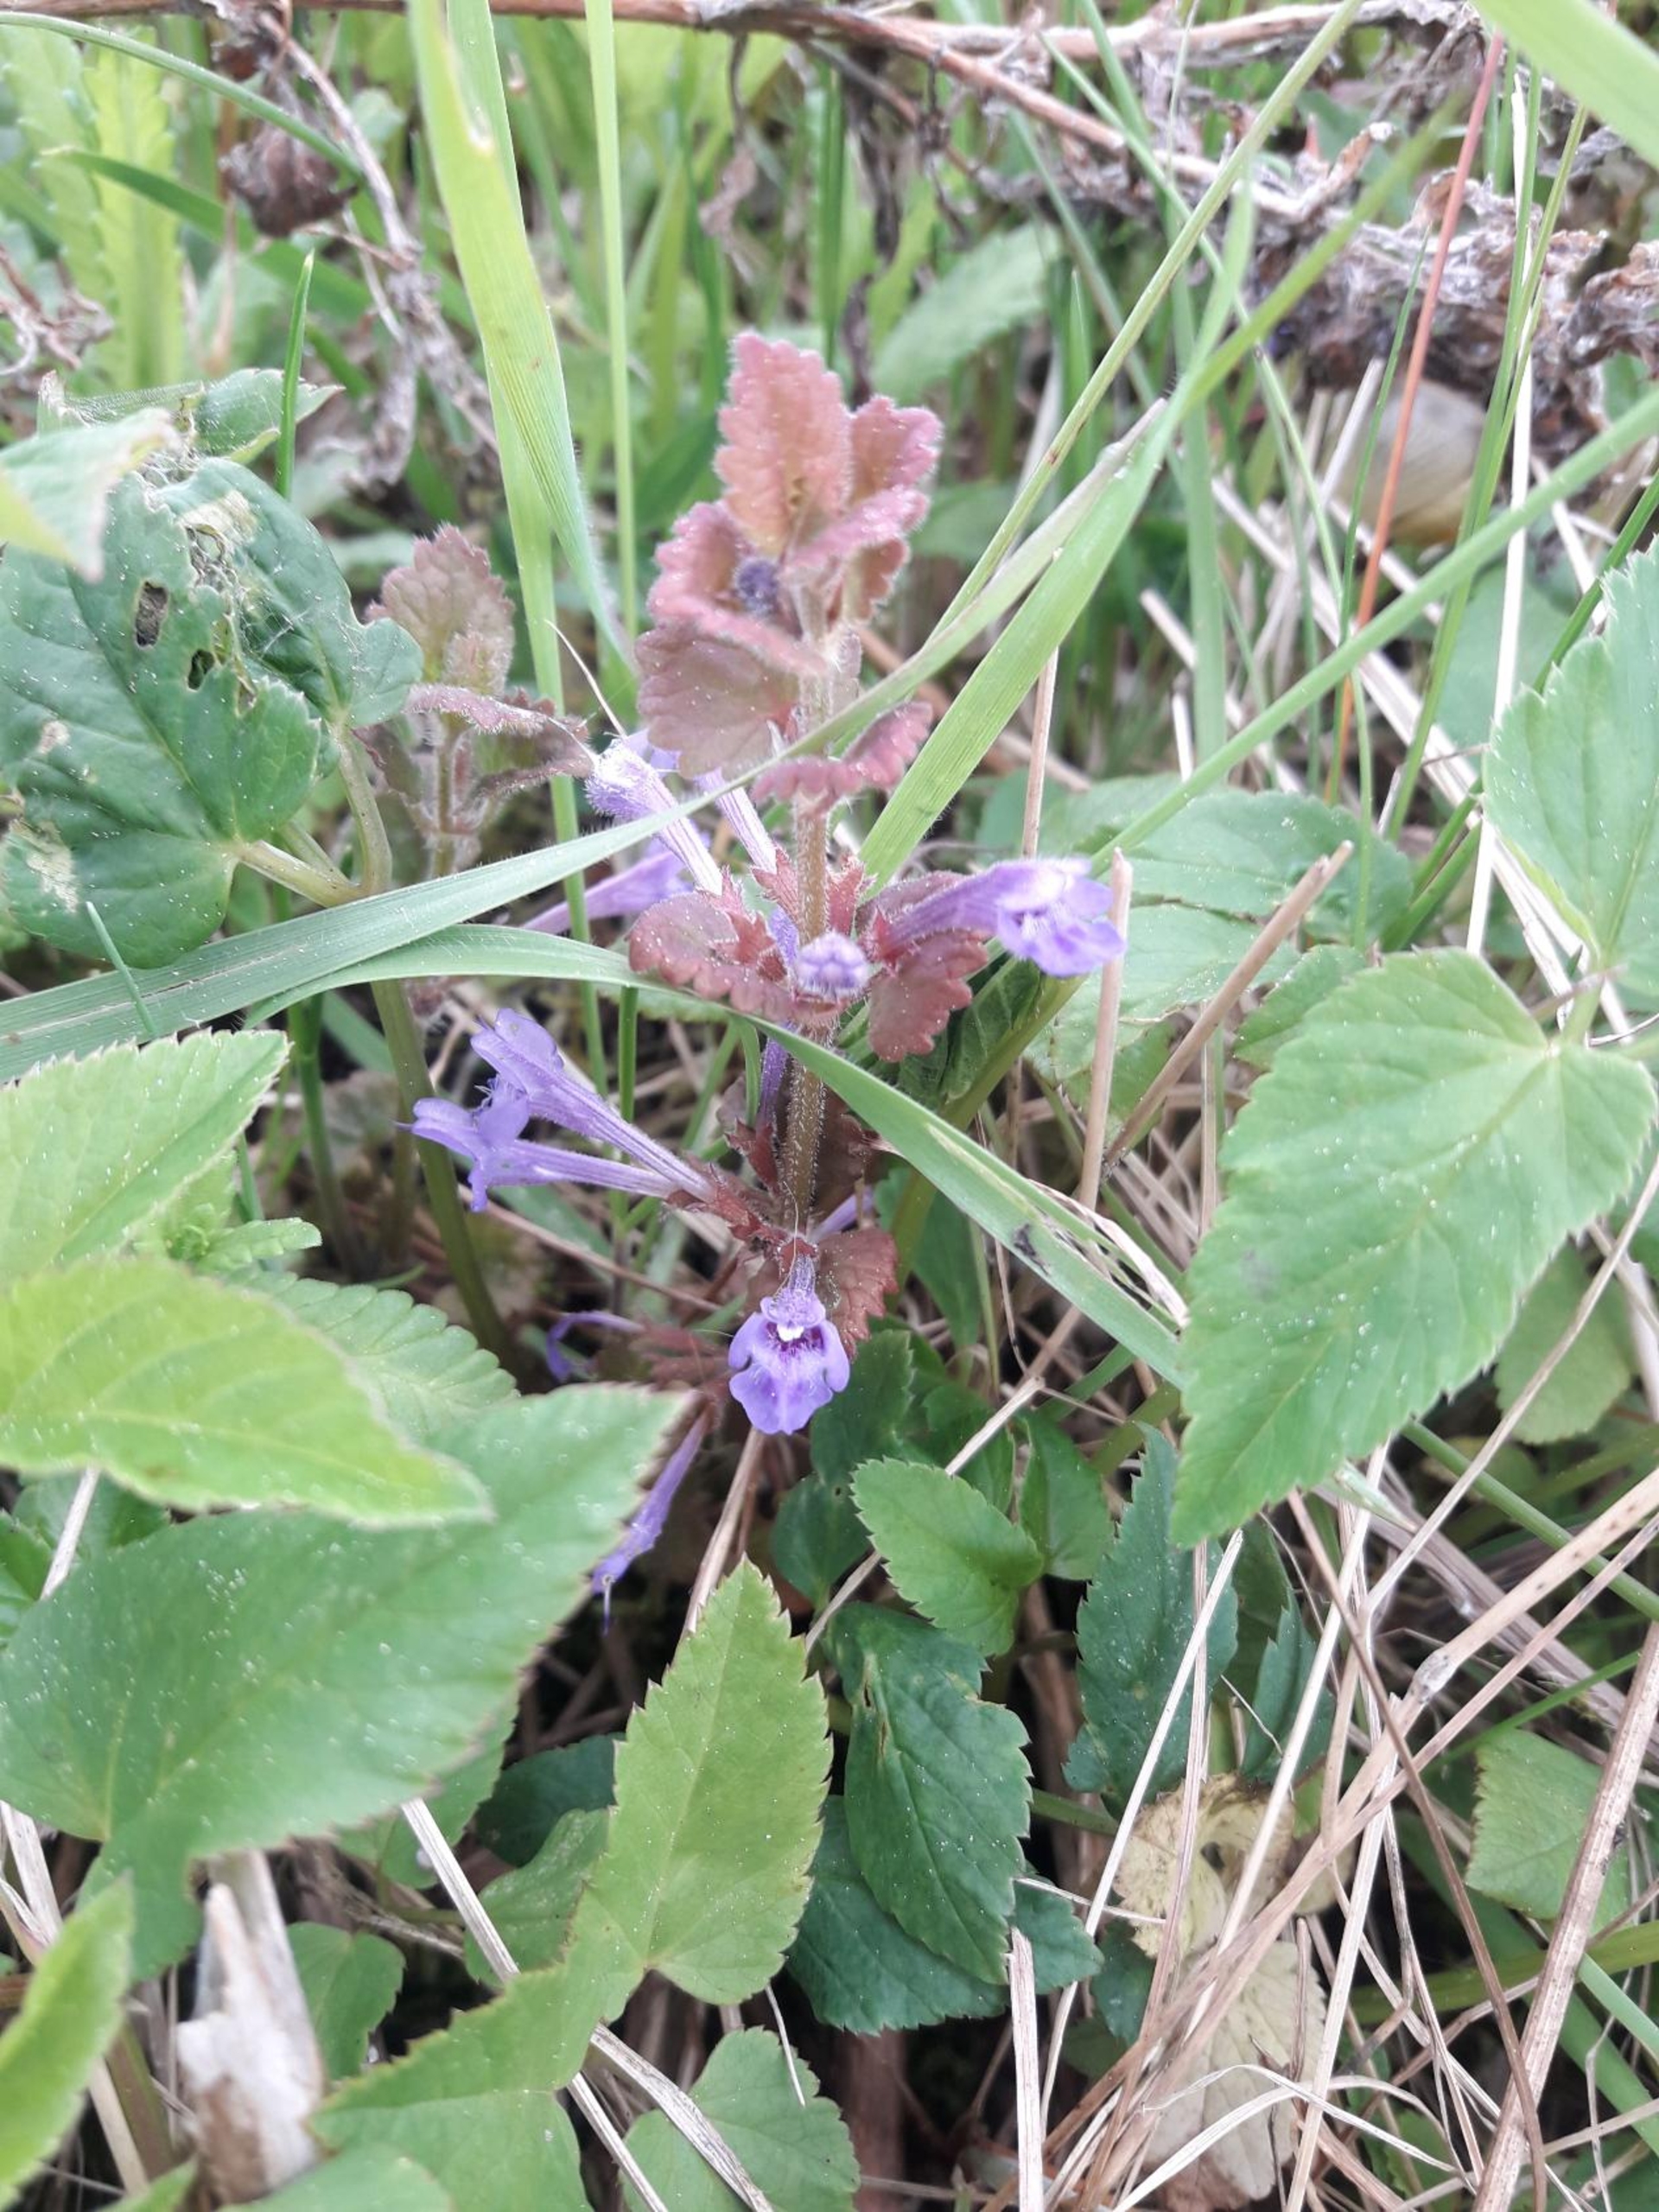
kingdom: Plantae
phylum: Tracheophyta
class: Magnoliopsida
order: Lamiales
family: Lamiaceae
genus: Glechoma
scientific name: Glechoma hederacea
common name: Korsknap
